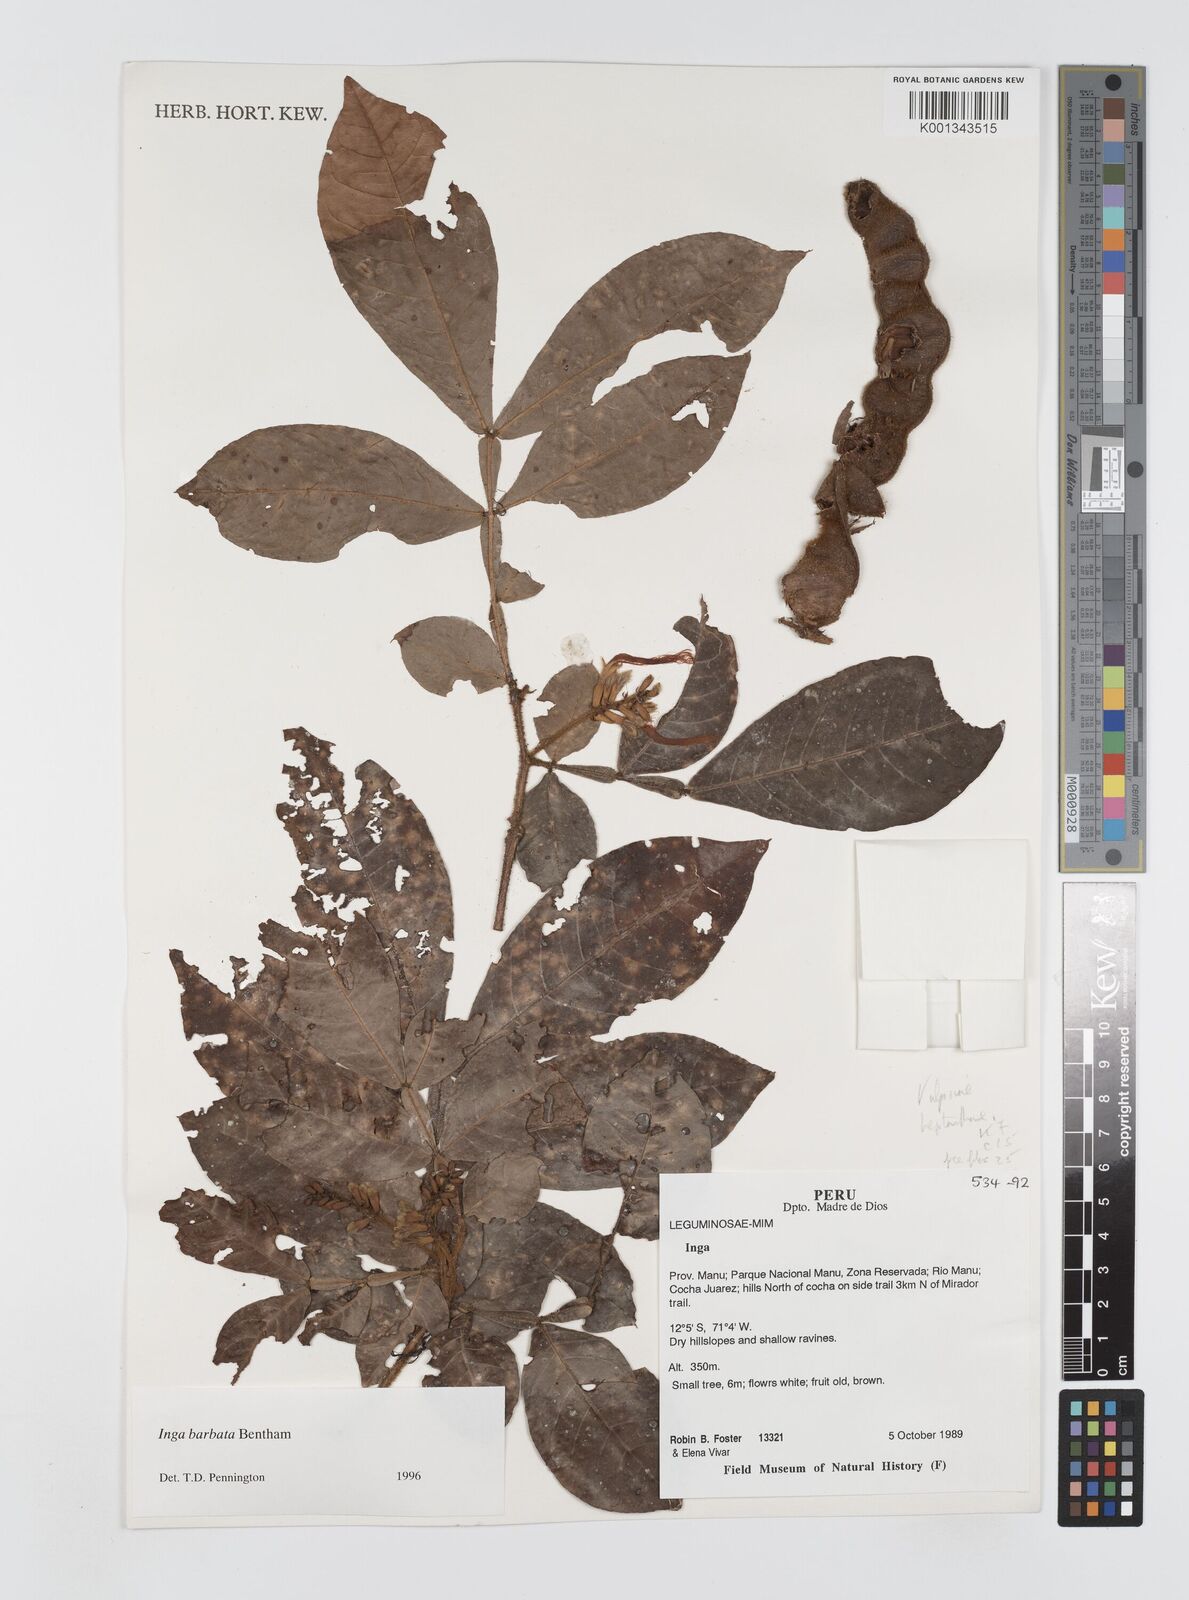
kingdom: Plantae
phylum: Tracheophyta
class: Magnoliopsida
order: Fabales
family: Fabaceae
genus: Inga
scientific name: Inga barbata
